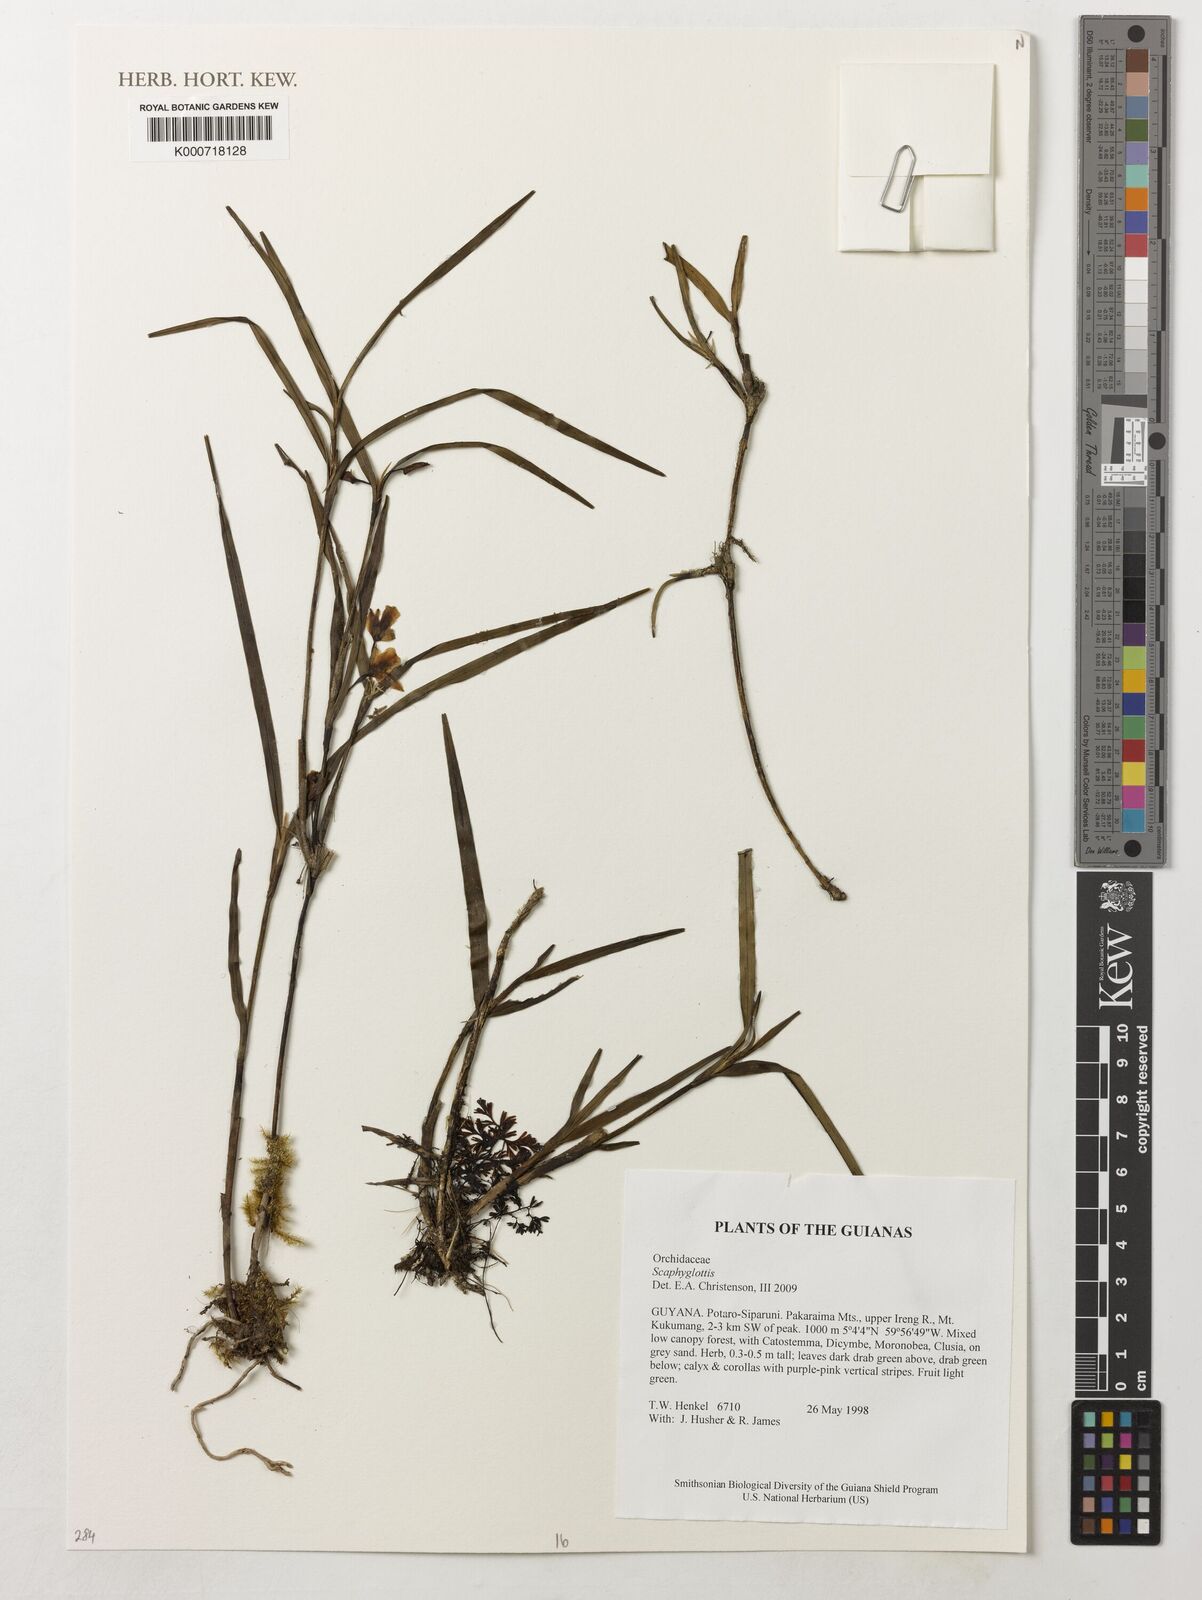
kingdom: Plantae
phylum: Tracheophyta
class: Liliopsida
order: Asparagales
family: Orchidaceae
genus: Scaphyglottis
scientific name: Scaphyglottis
